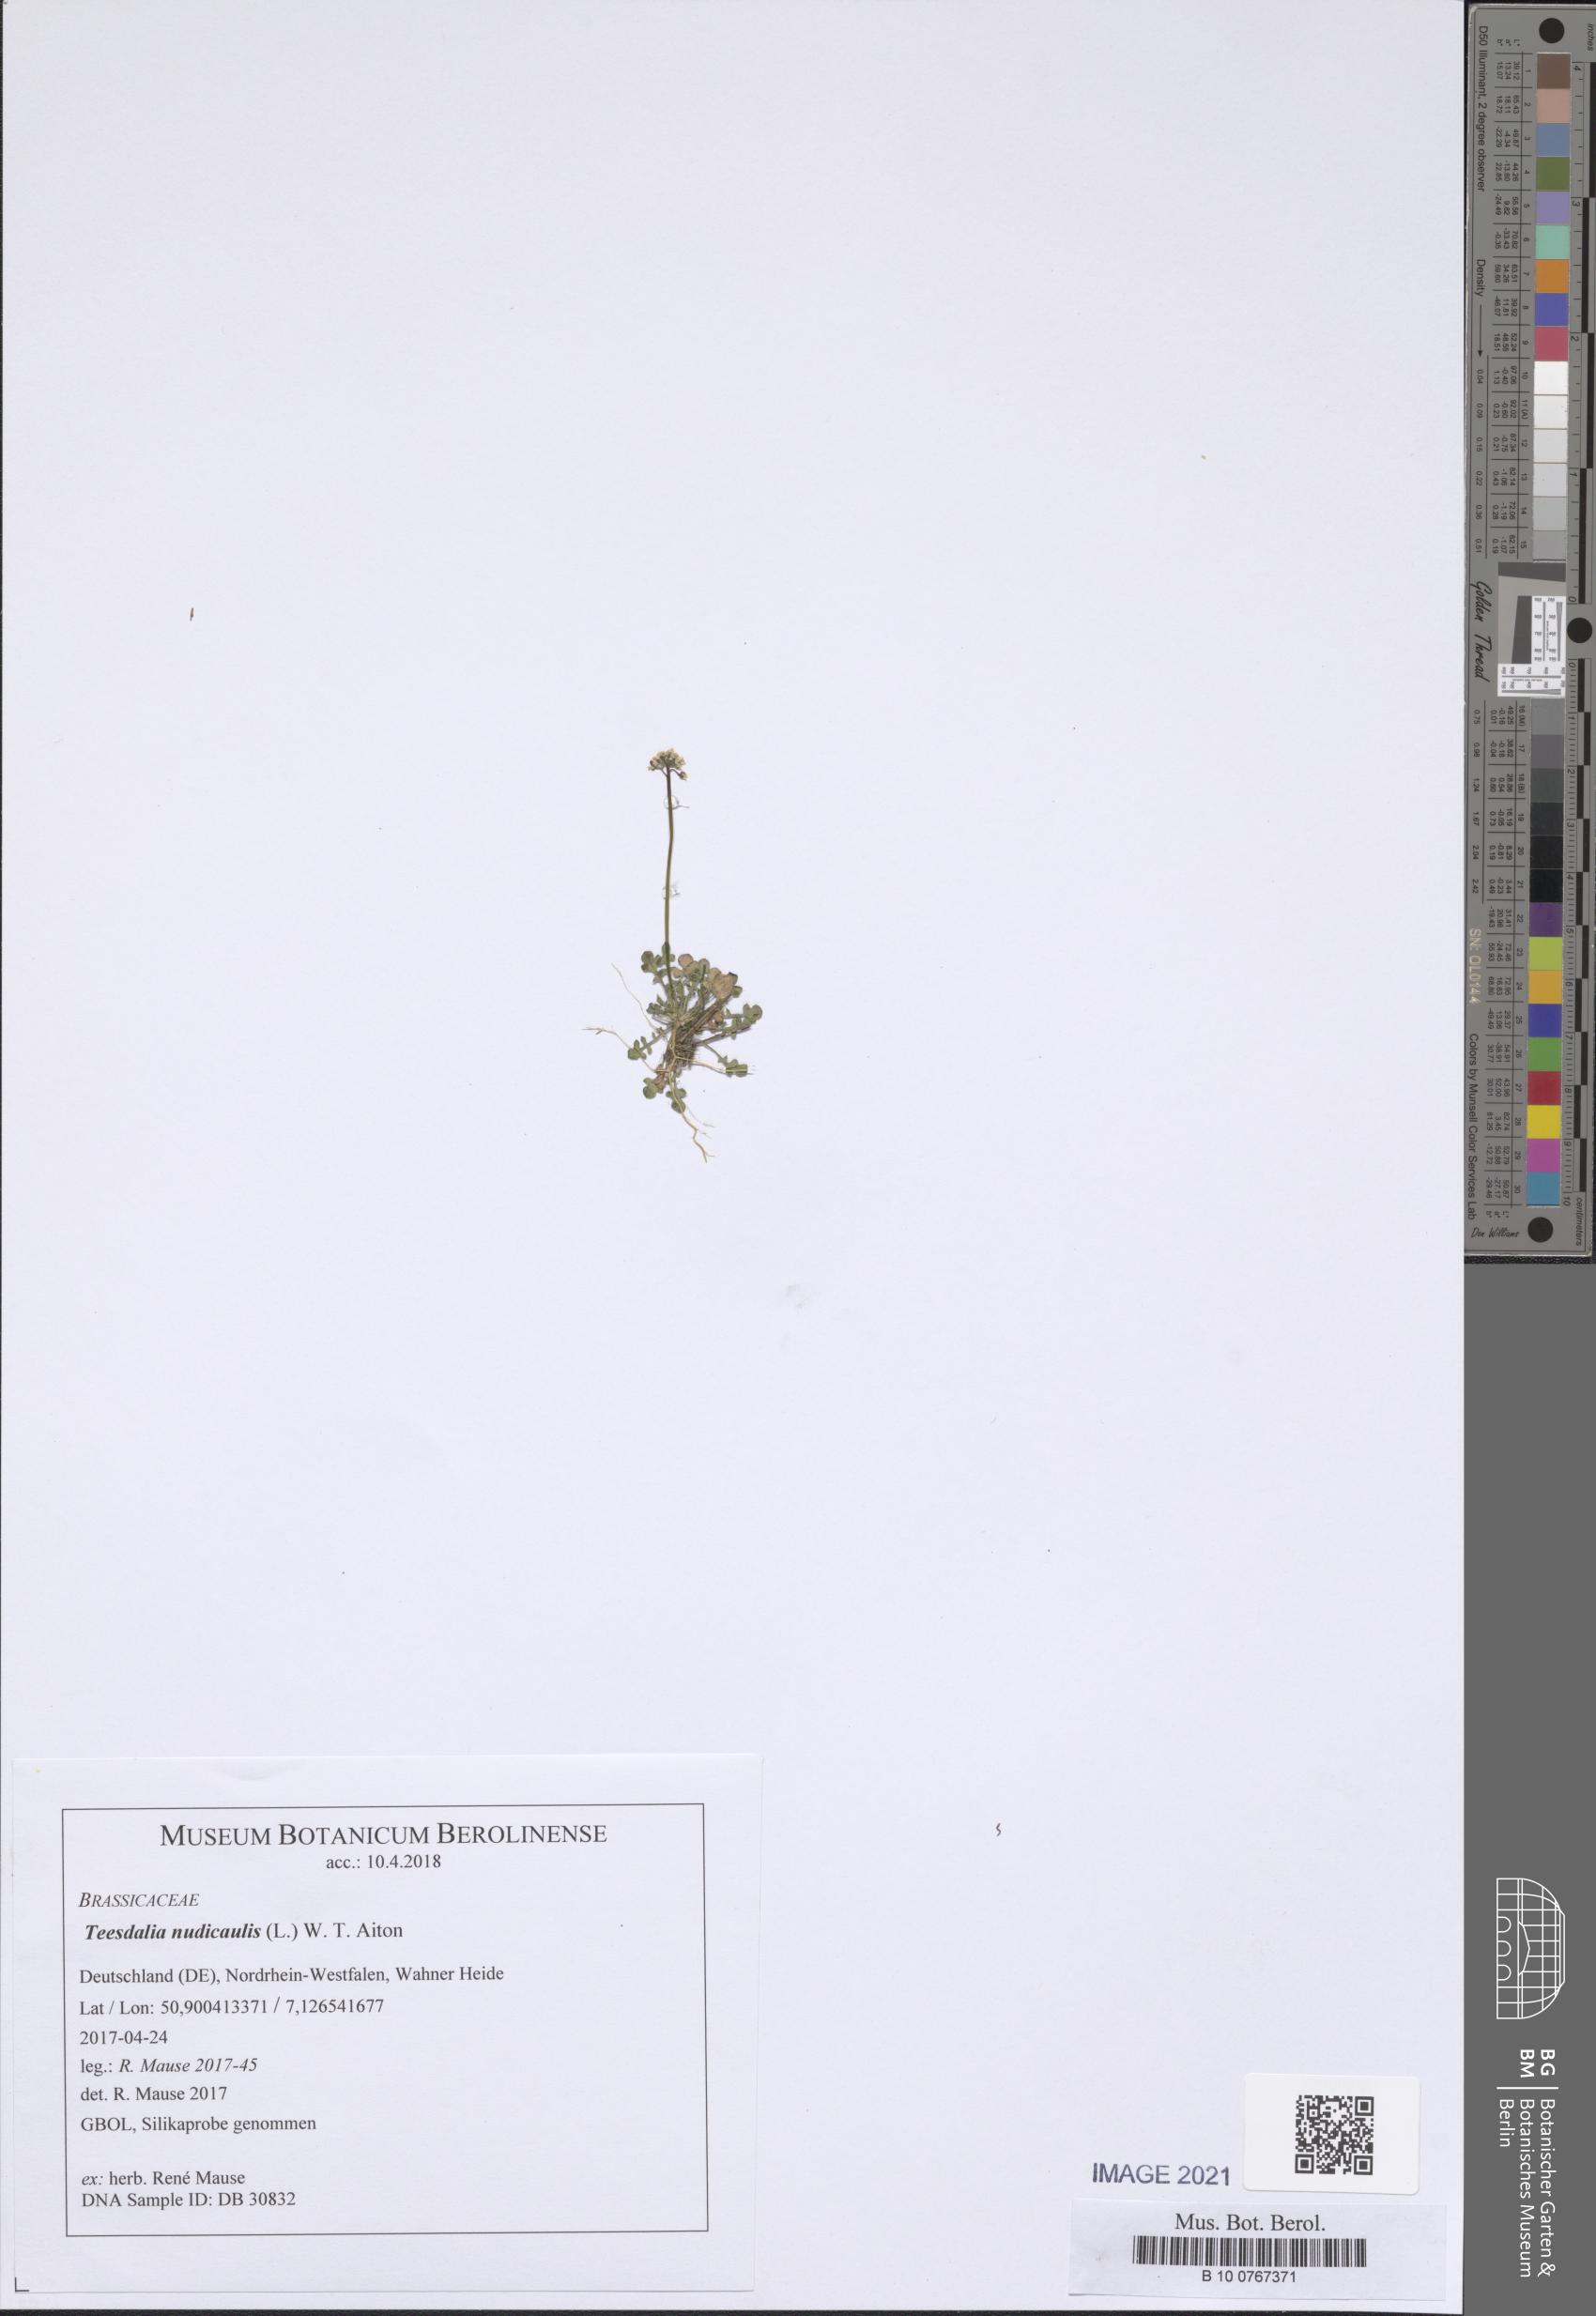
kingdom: Plantae
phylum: Tracheophyta
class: Magnoliopsida
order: Brassicales
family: Brassicaceae
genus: Teesdalia
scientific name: Teesdalia nudicaulis
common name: Shepherd's cress
